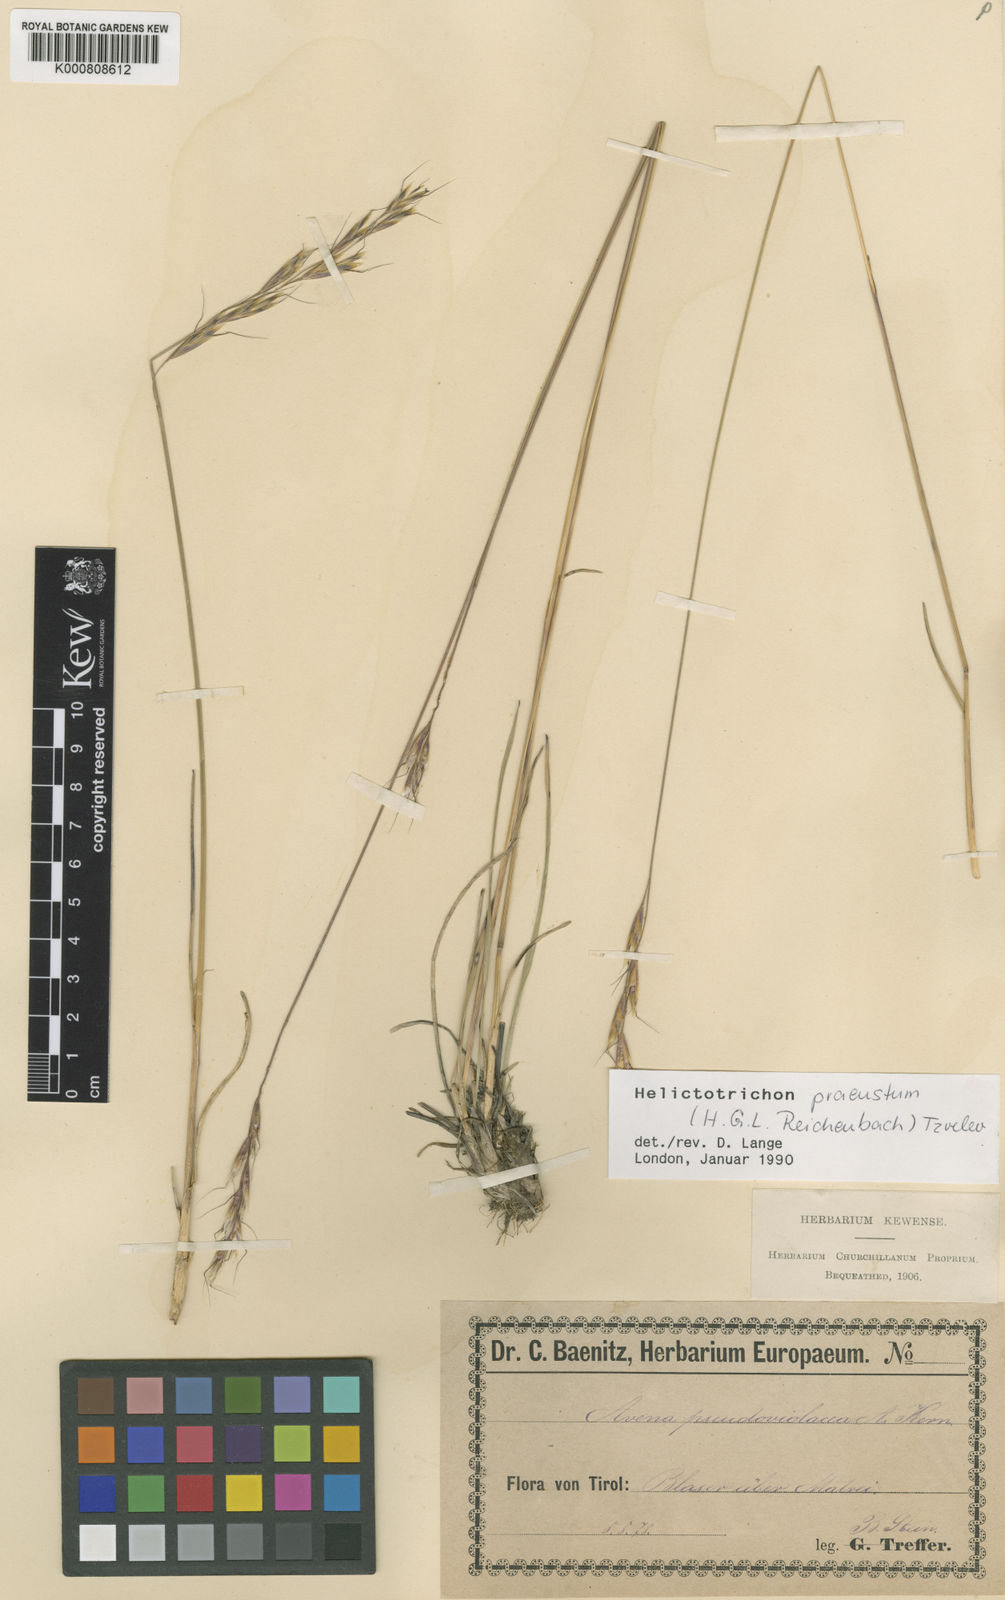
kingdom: Plantae
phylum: Tracheophyta
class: Liliopsida
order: Poales
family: Poaceae
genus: Helictochloa
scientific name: Helictochloa praeusta
